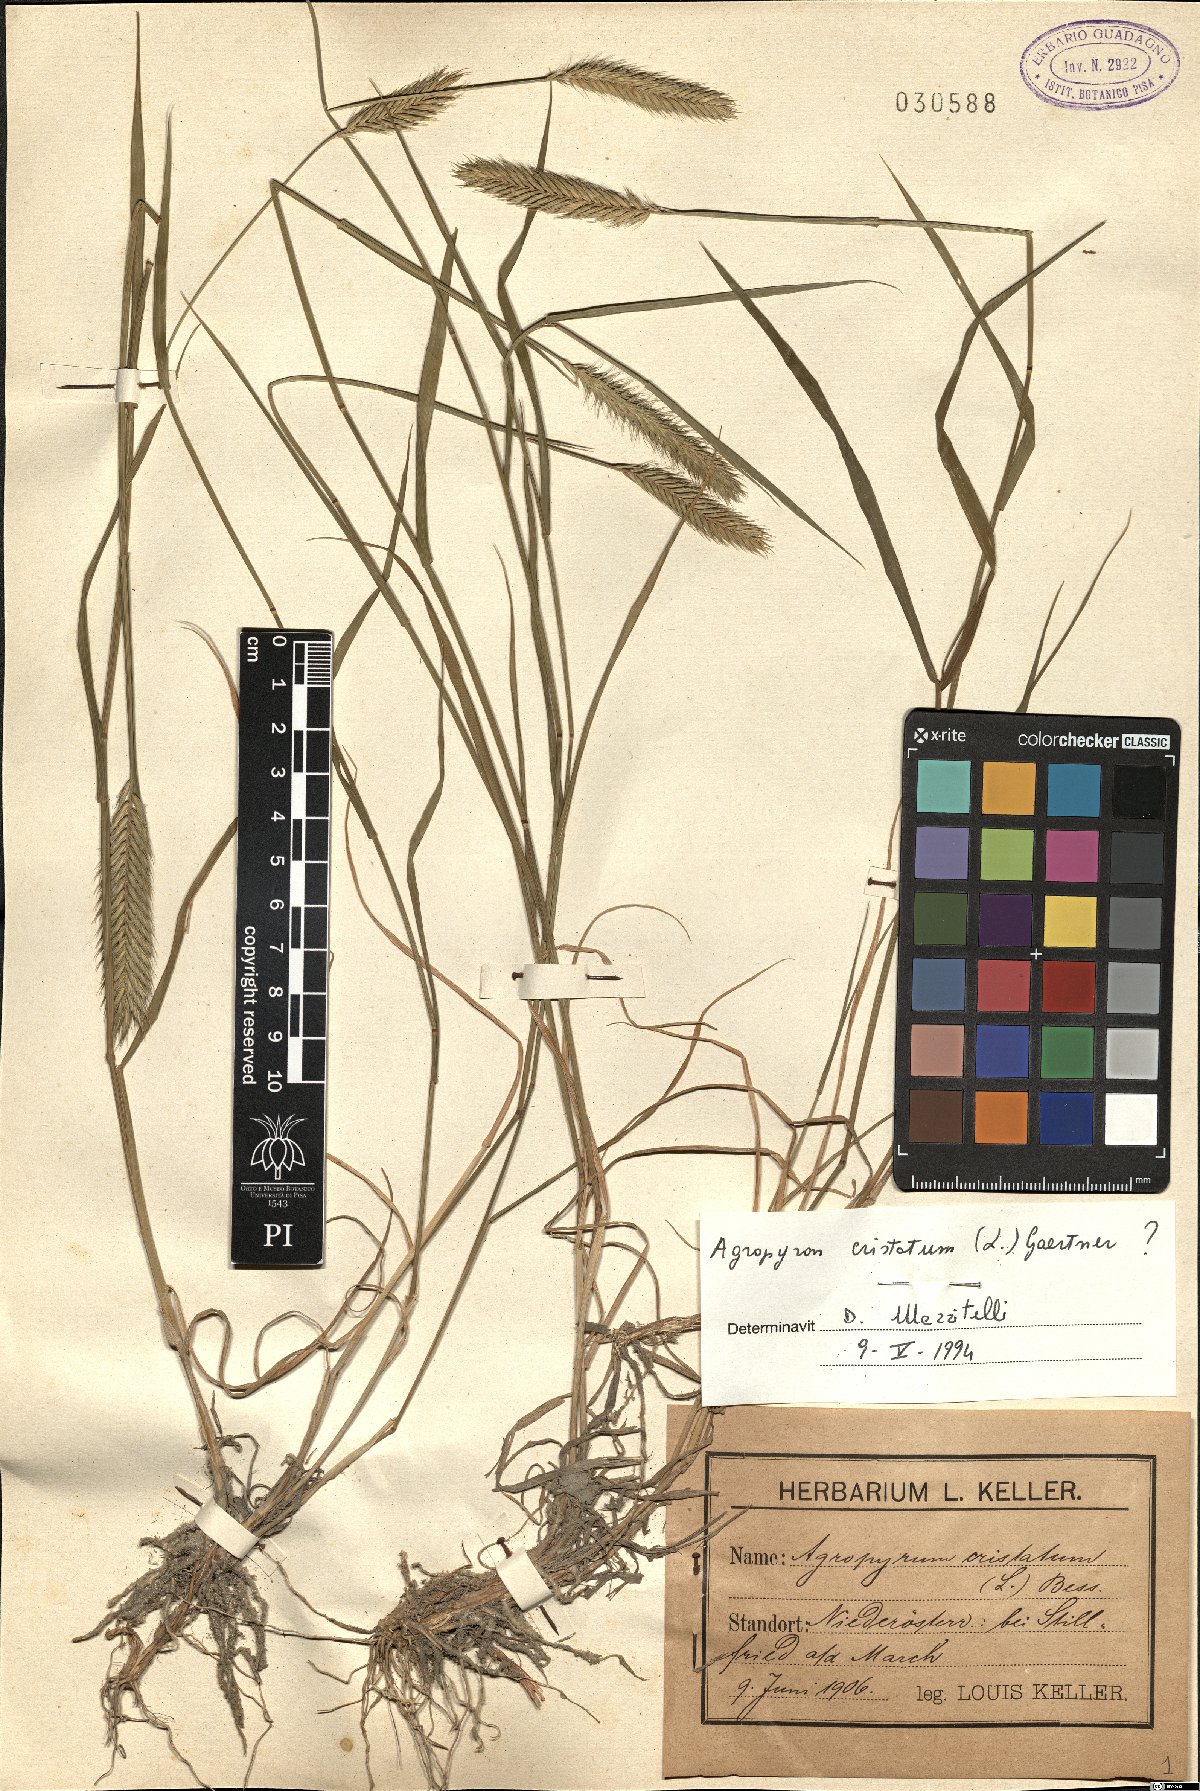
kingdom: Plantae
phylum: Tracheophyta
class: Liliopsida
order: Poales
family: Poaceae
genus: Agropyron
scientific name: Agropyron cristatum
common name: Crested wheatgrass
